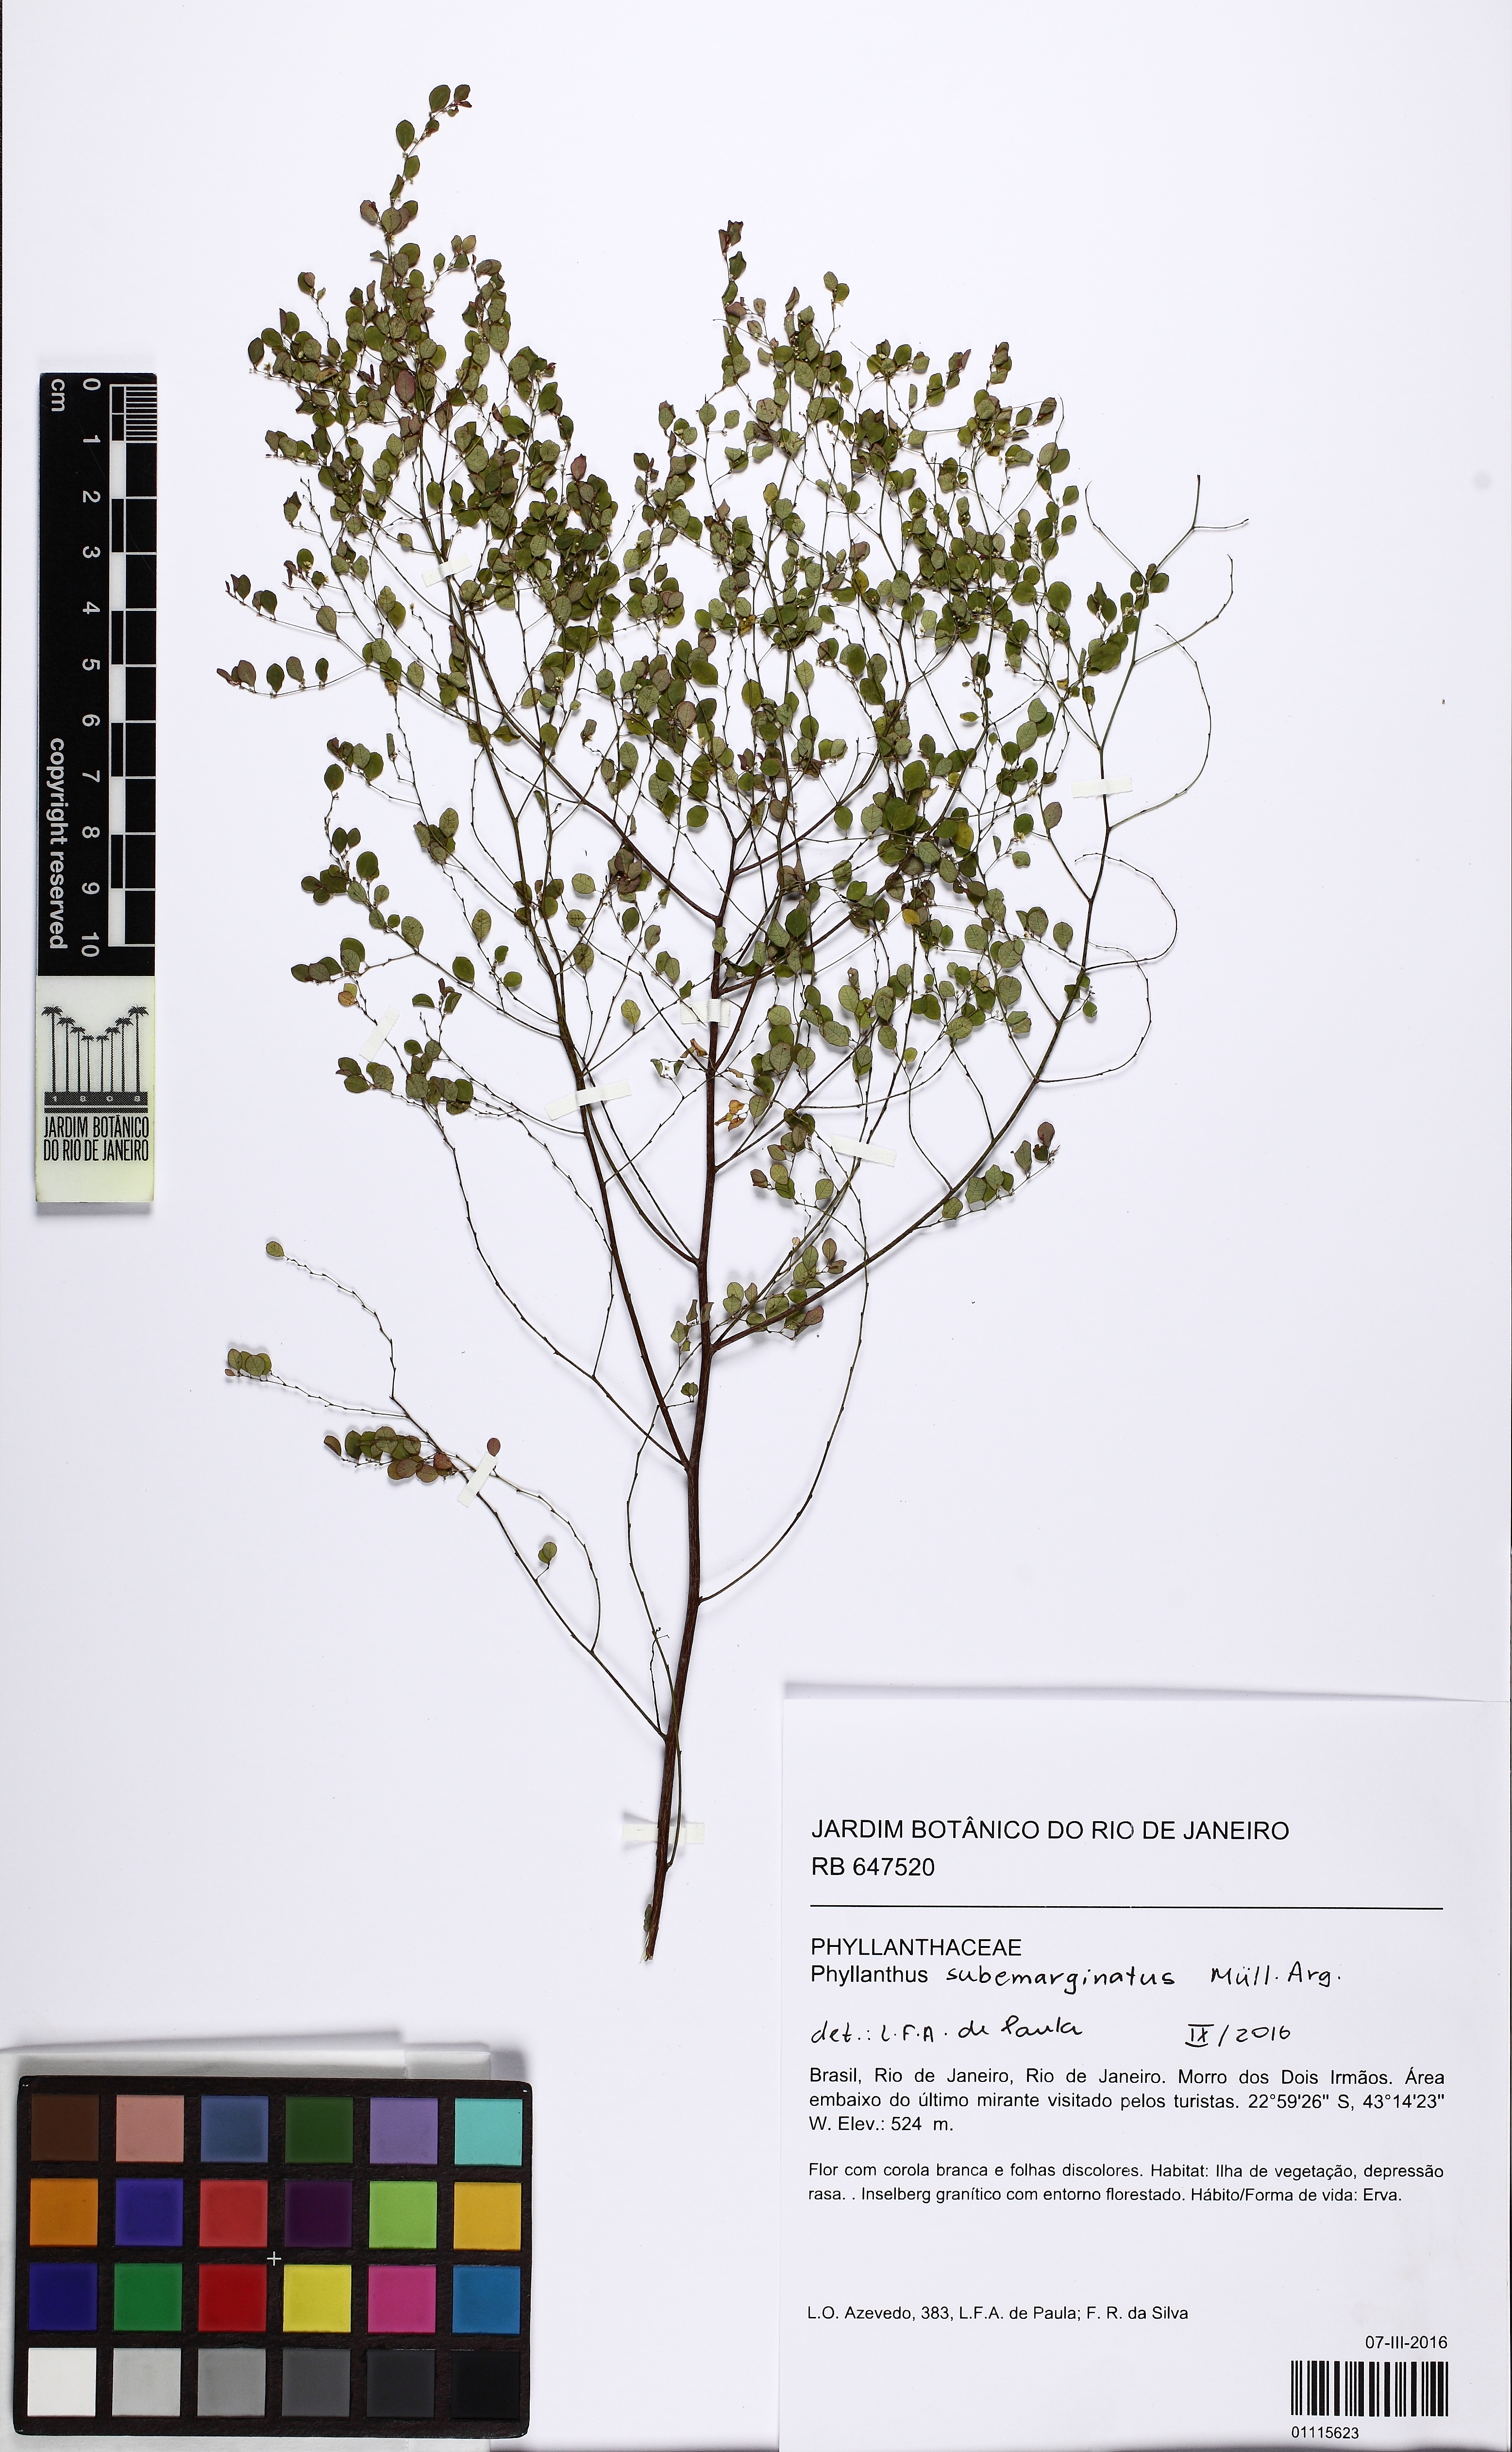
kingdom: Plantae
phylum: Tracheophyta
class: Magnoliopsida
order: Malpighiales
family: Phyllanthaceae
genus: Phyllanthus
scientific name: Phyllanthus subemarginatus
